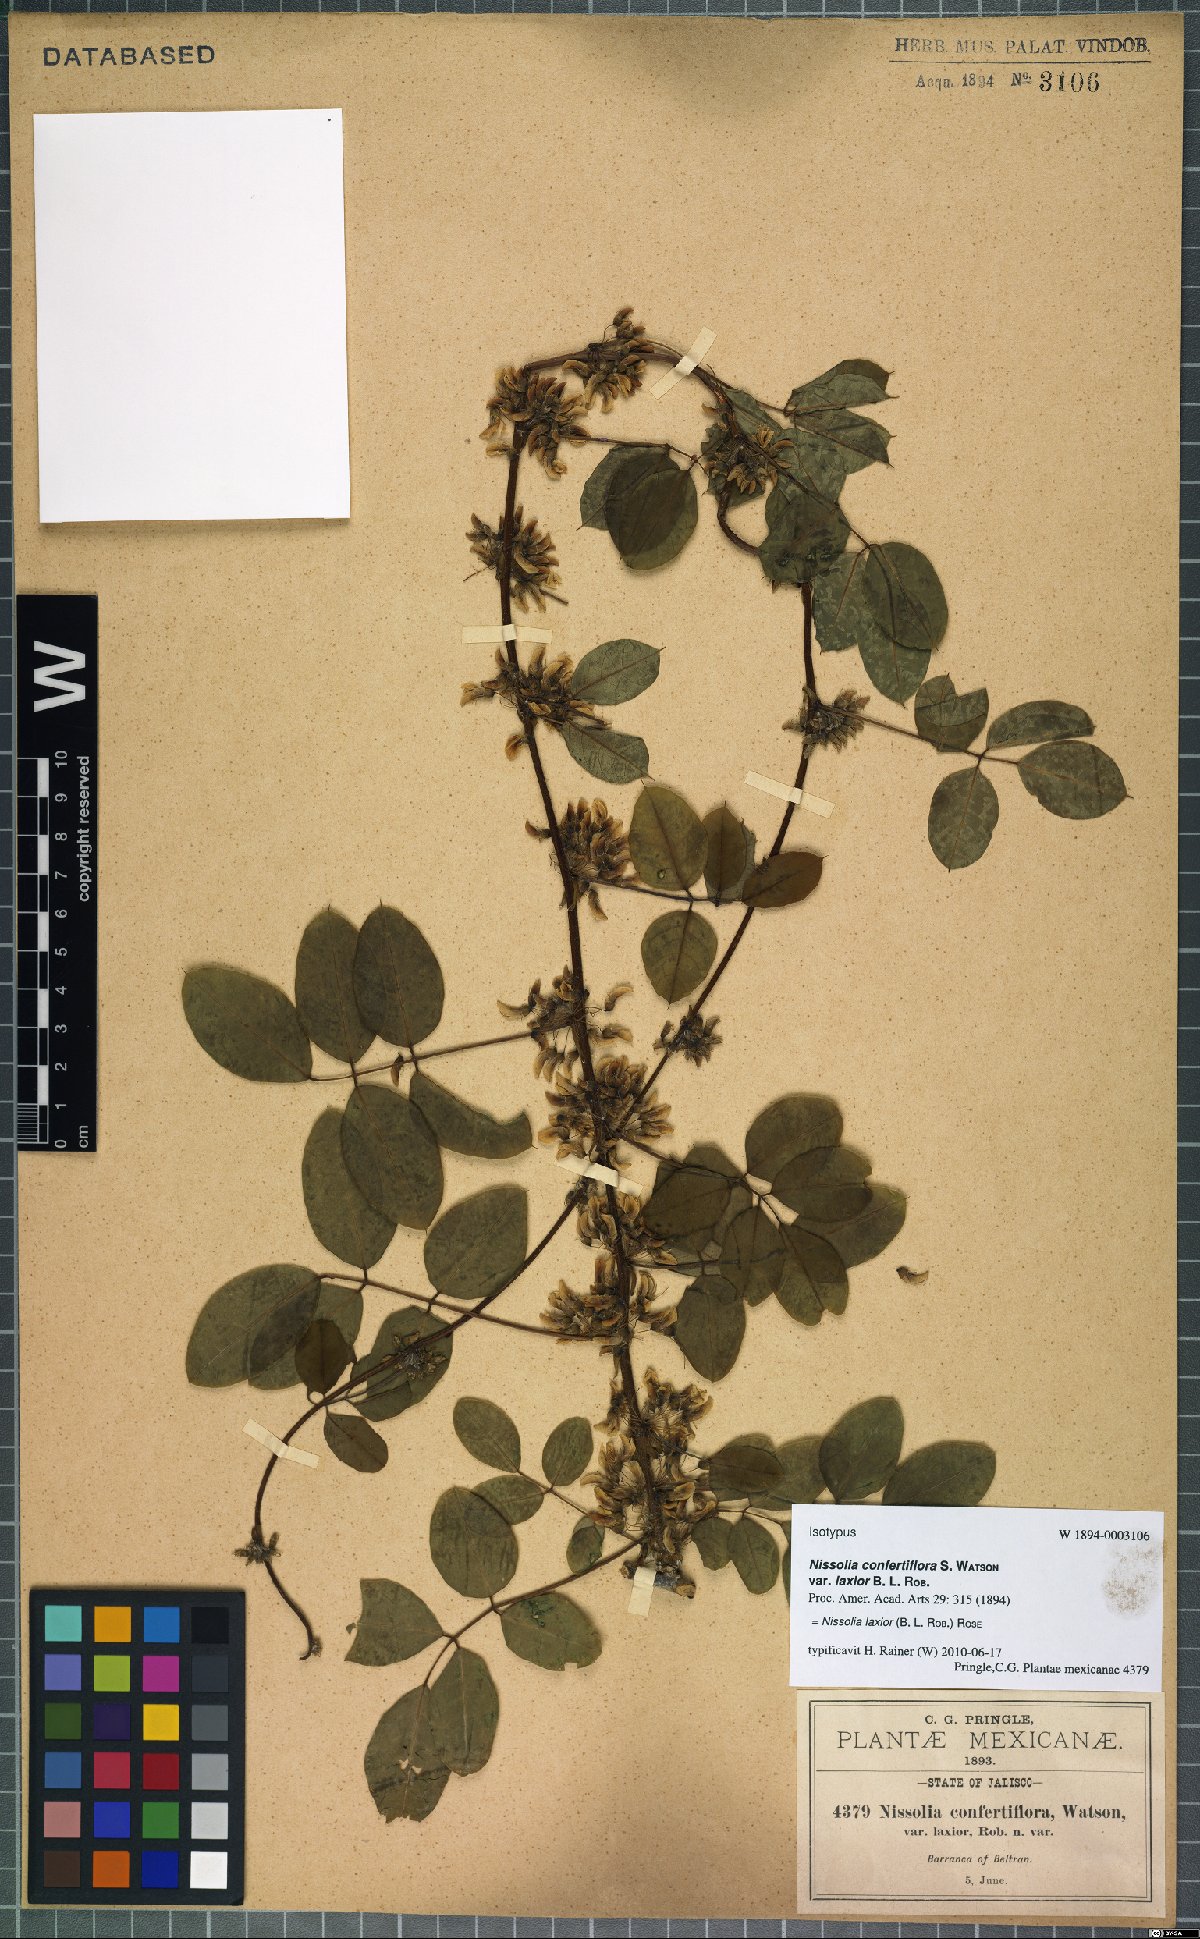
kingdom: Plantae
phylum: Tracheophyta
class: Magnoliopsida
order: Fabales
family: Fabaceae
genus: Nissolia
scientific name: Nissolia laxior
